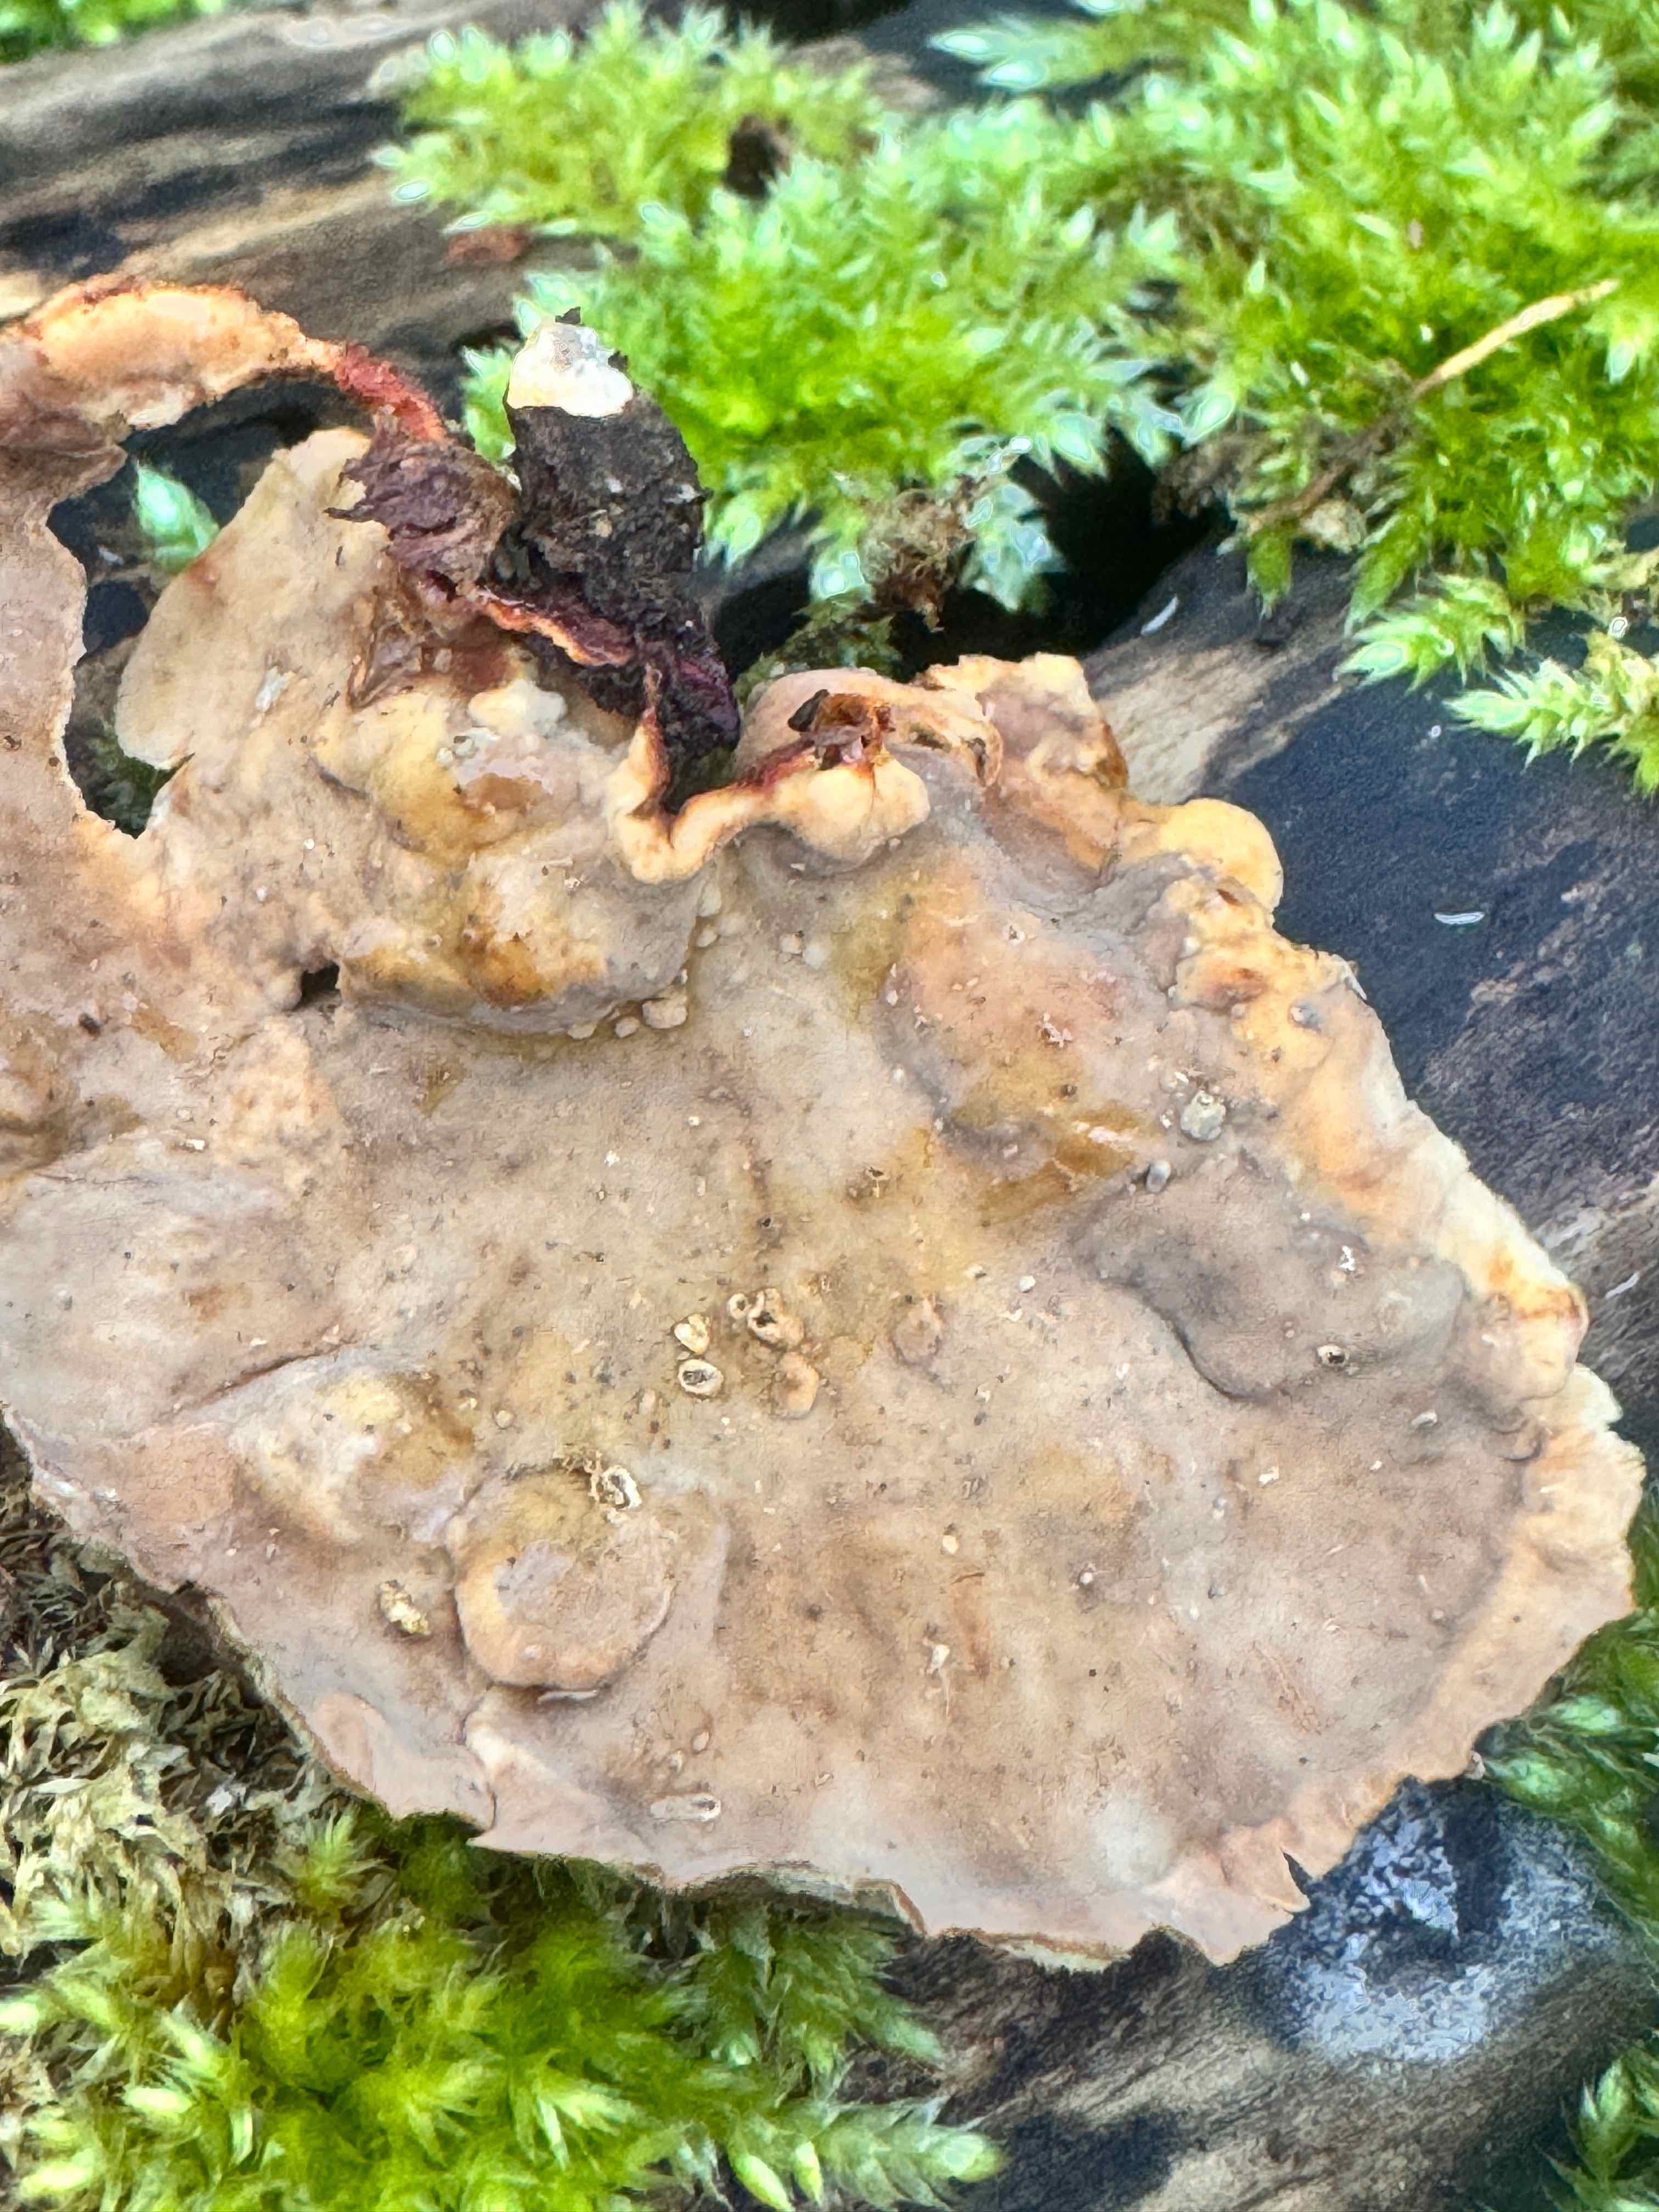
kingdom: Fungi
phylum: Basidiomycota
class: Agaricomycetes
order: Russulales
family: Stereaceae
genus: Stereum
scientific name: Stereum subtomentosum
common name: smuk lædersvamp
